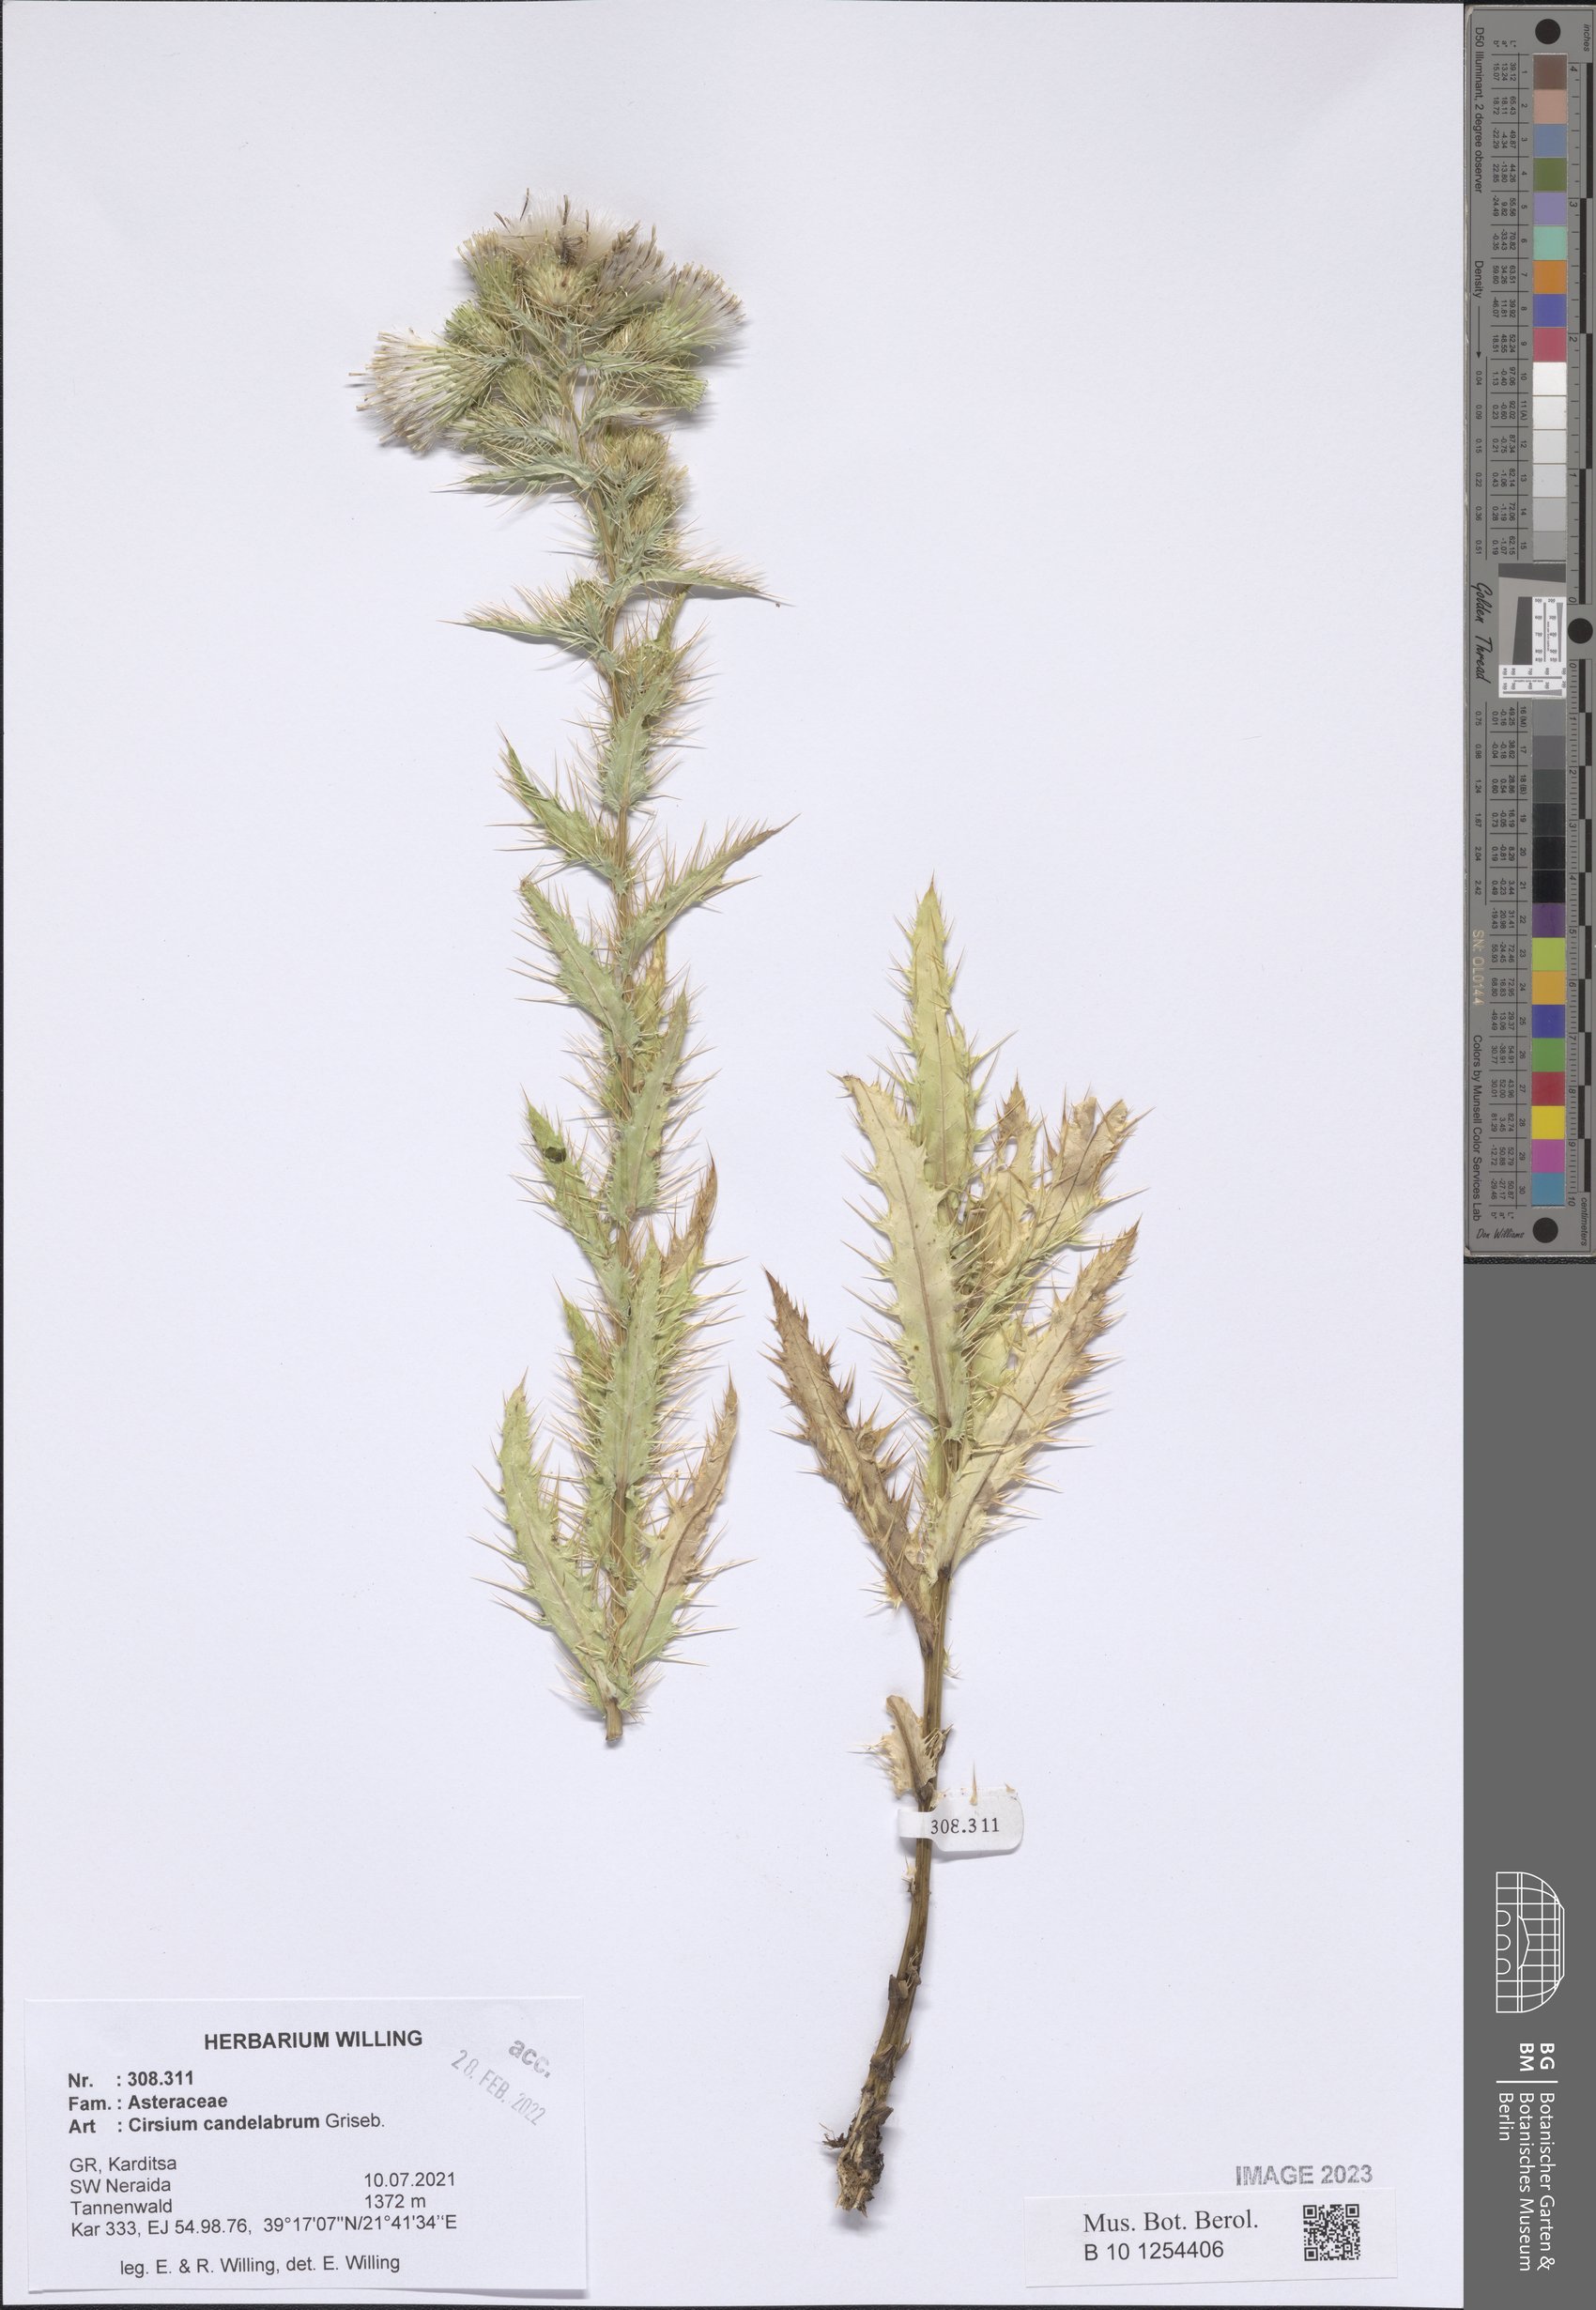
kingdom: Plantae
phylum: Tracheophyta
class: Magnoliopsida
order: Asterales
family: Asteraceae
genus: Cirsium
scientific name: Cirsium candelabrum
